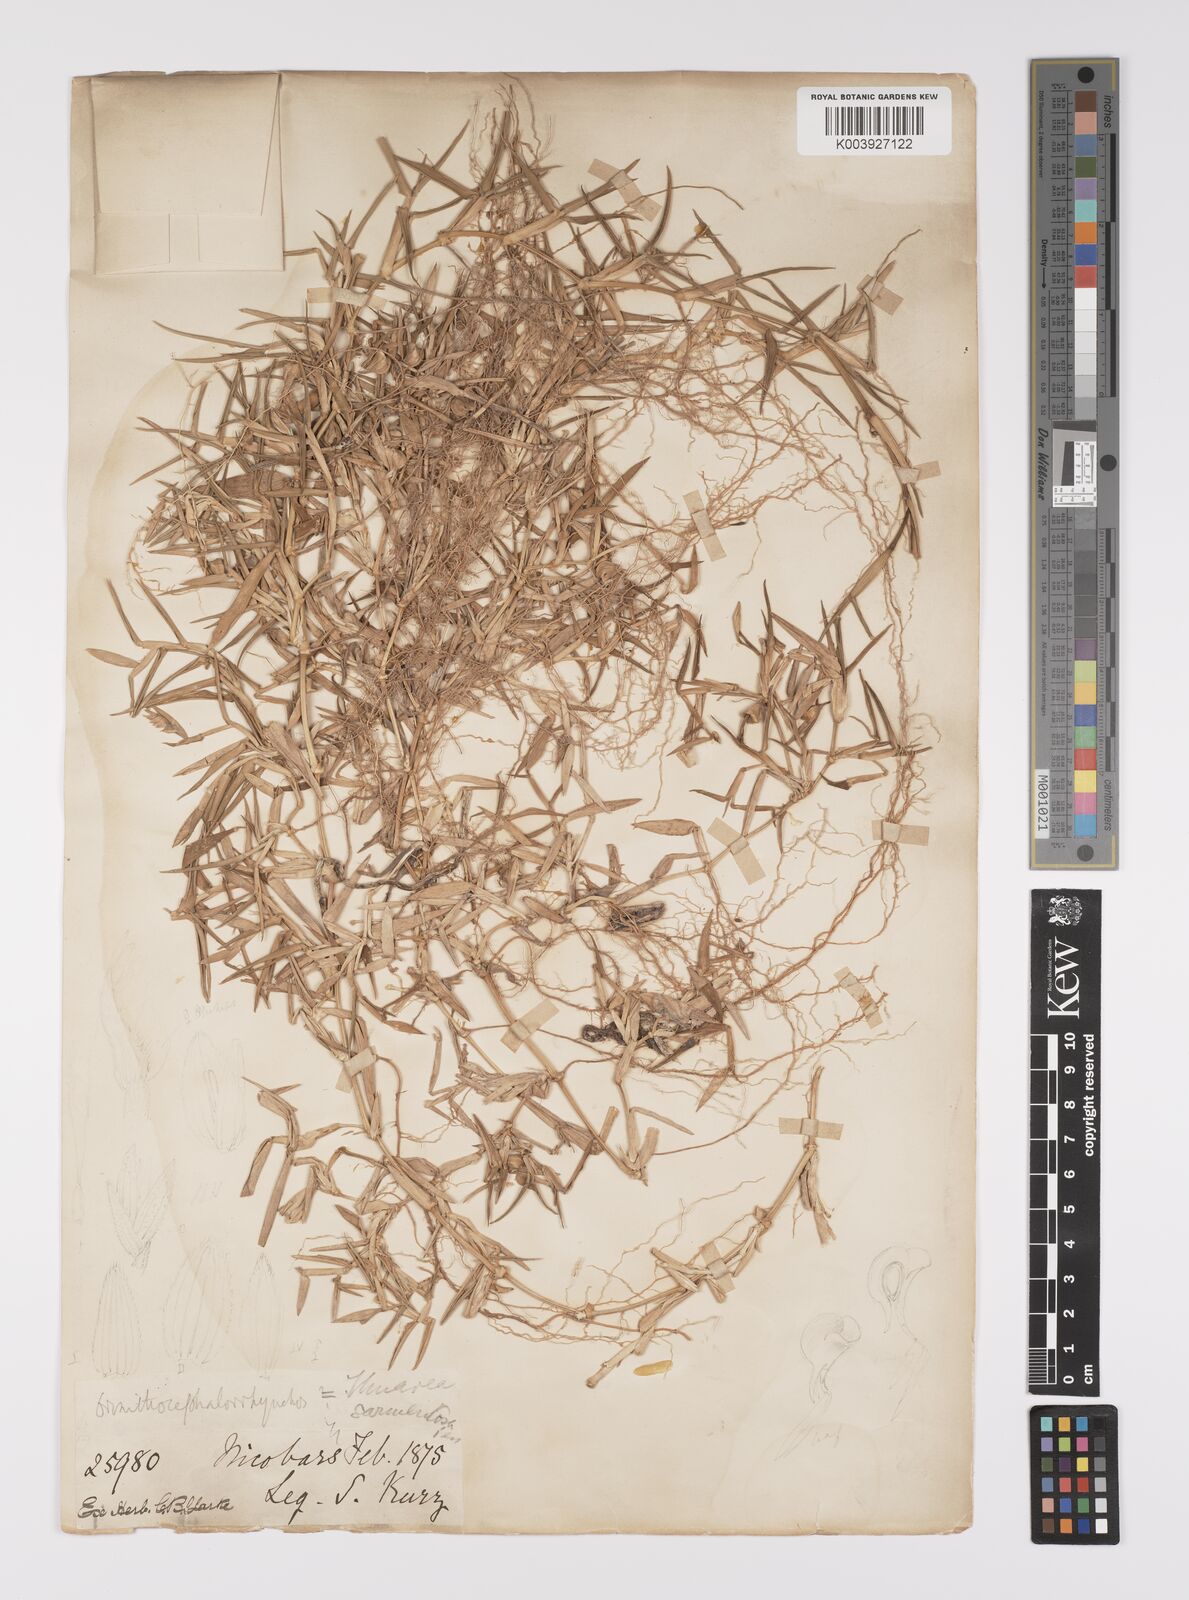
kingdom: Plantae
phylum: Tracheophyta
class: Liliopsida
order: Poales
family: Poaceae
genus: Thuarea
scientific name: Thuarea involuta
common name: Tropical beach grass
